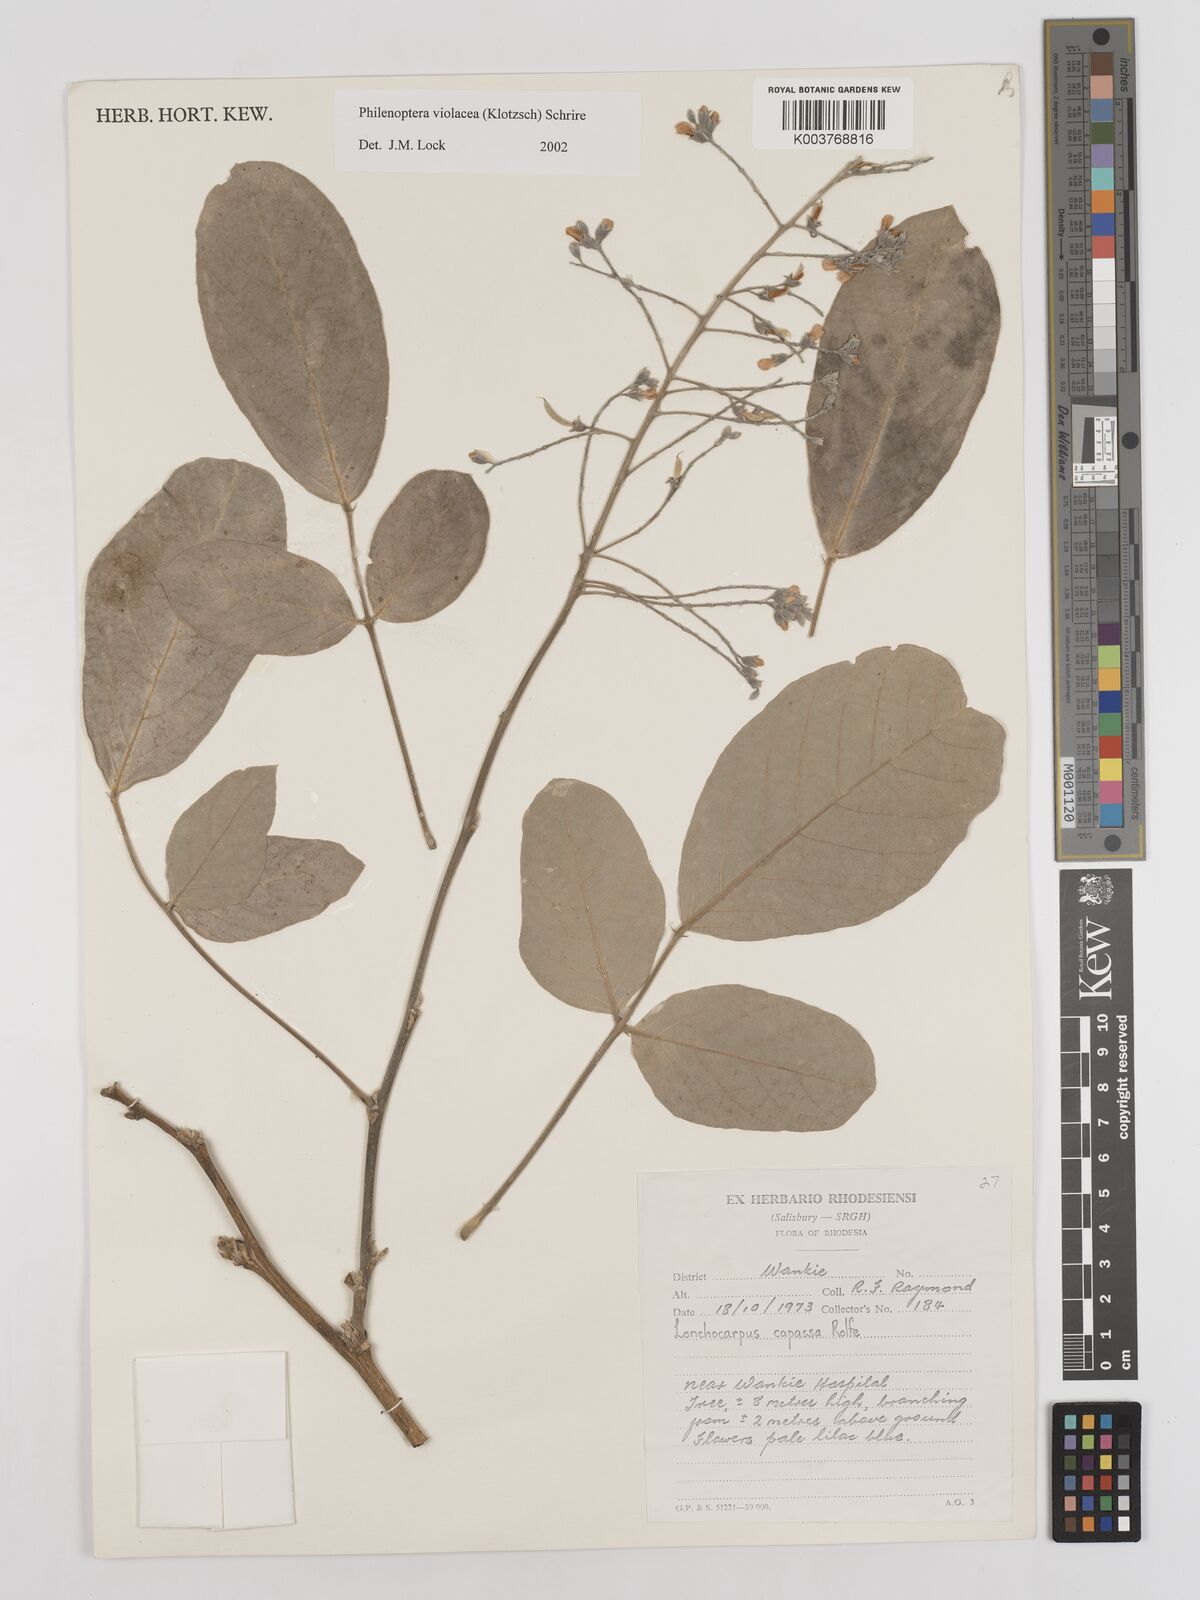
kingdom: Plantae
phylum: Tracheophyta
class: Magnoliopsida
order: Fabales
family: Fabaceae
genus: Philenoptera
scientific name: Philenoptera violacea
